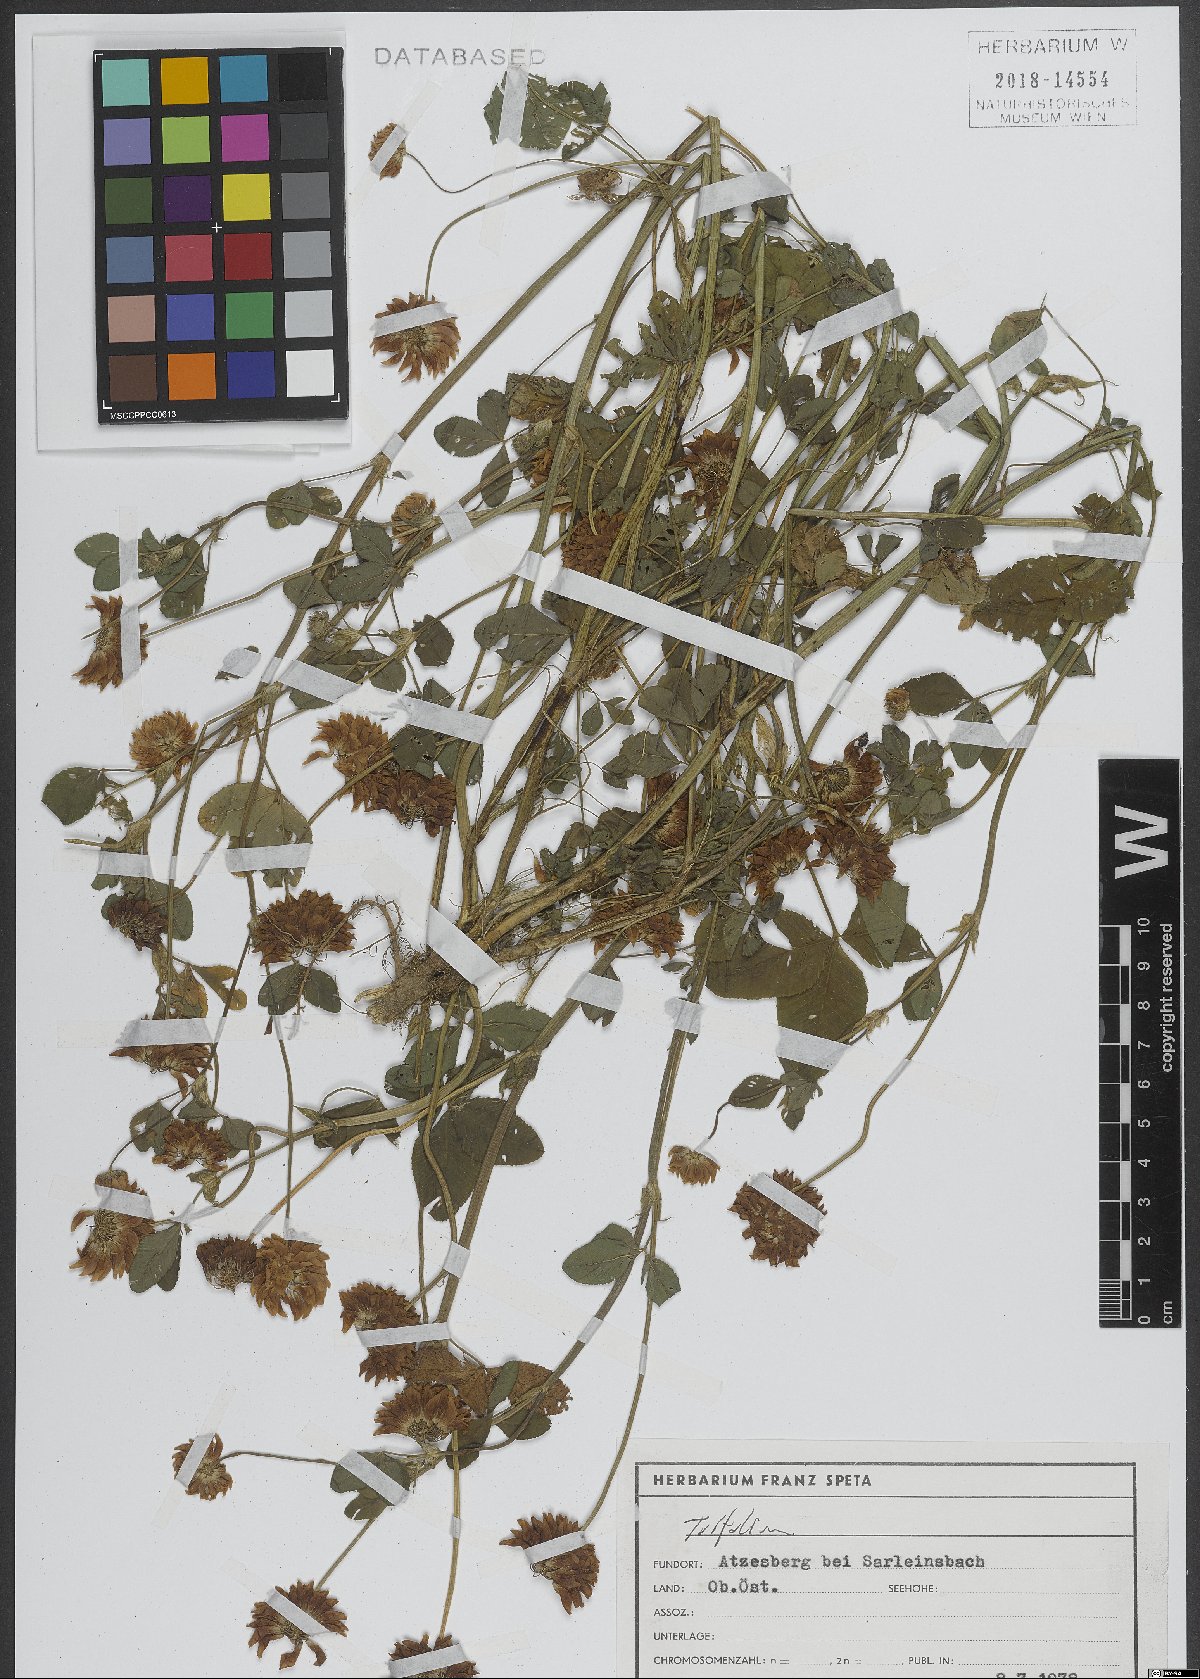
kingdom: Plantae
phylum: Tracheophyta
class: Magnoliopsida
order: Fabales
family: Fabaceae
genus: Trifolium
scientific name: Trifolium
